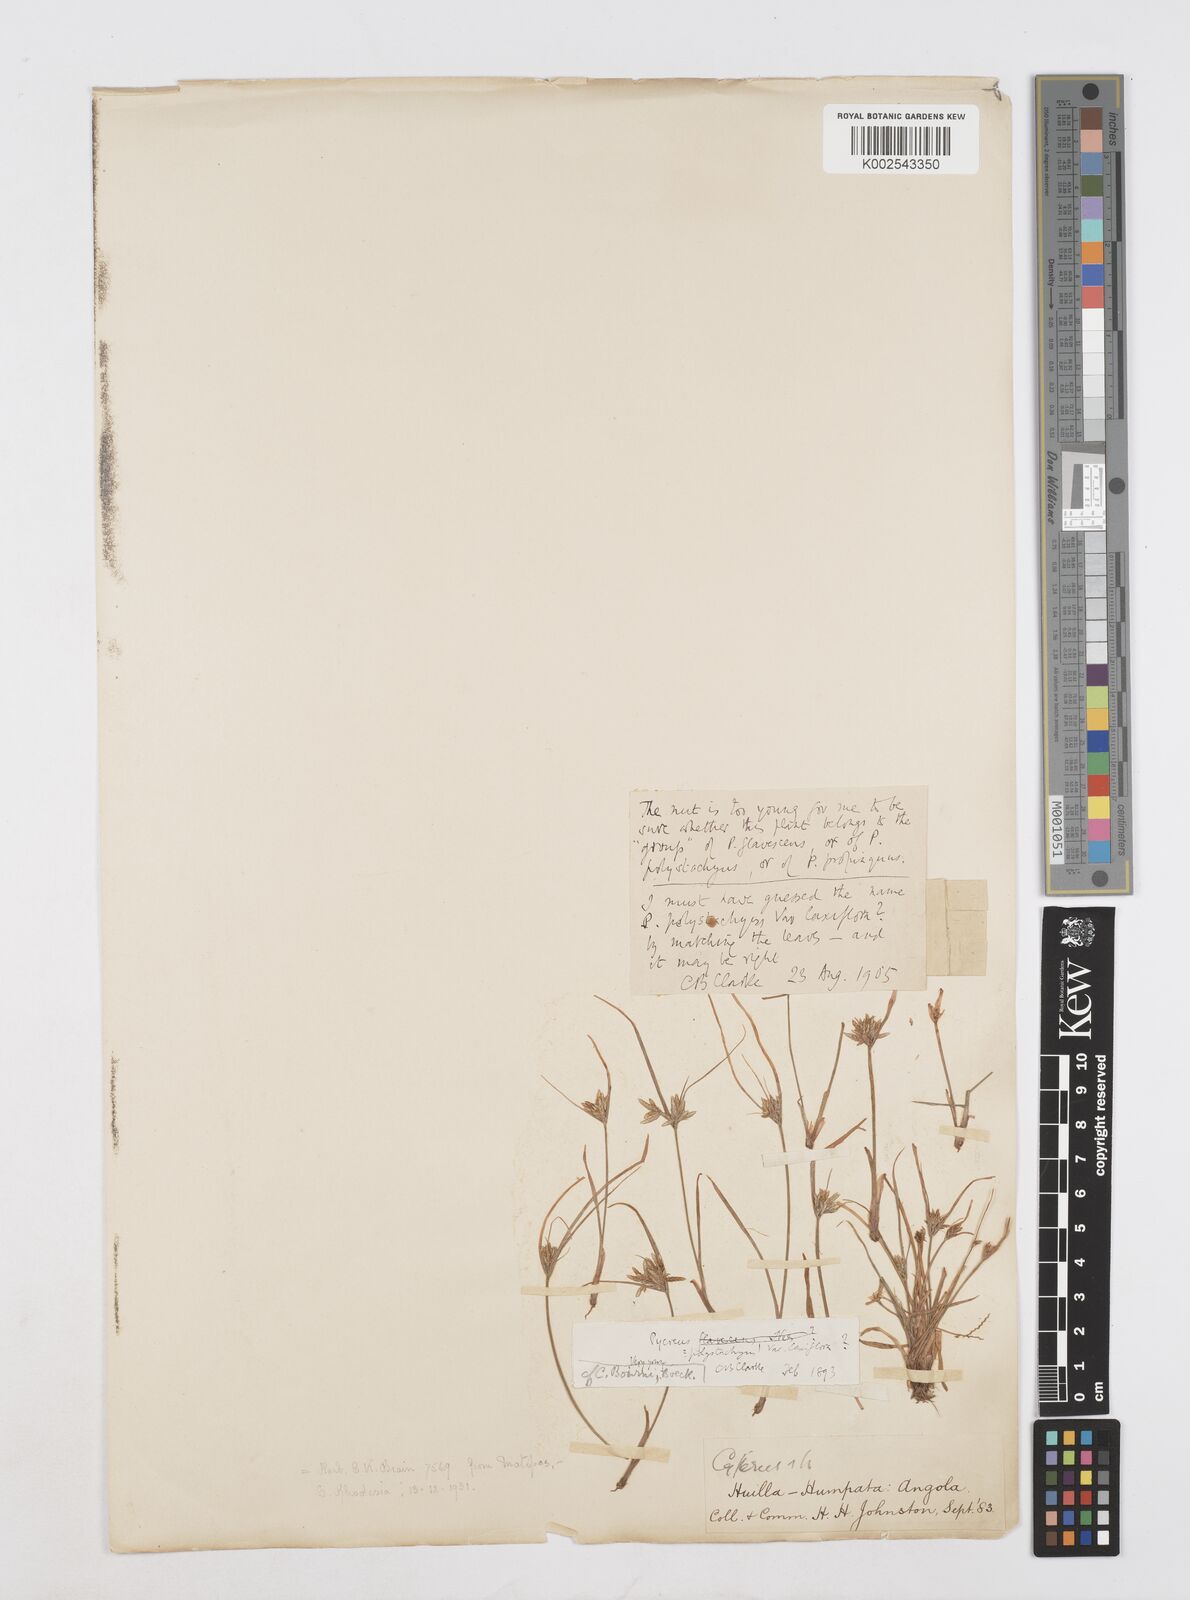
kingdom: Plantae
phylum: Tracheophyta
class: Liliopsida
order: Poales
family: Cyperaceae
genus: Cyperus
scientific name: Cyperus
